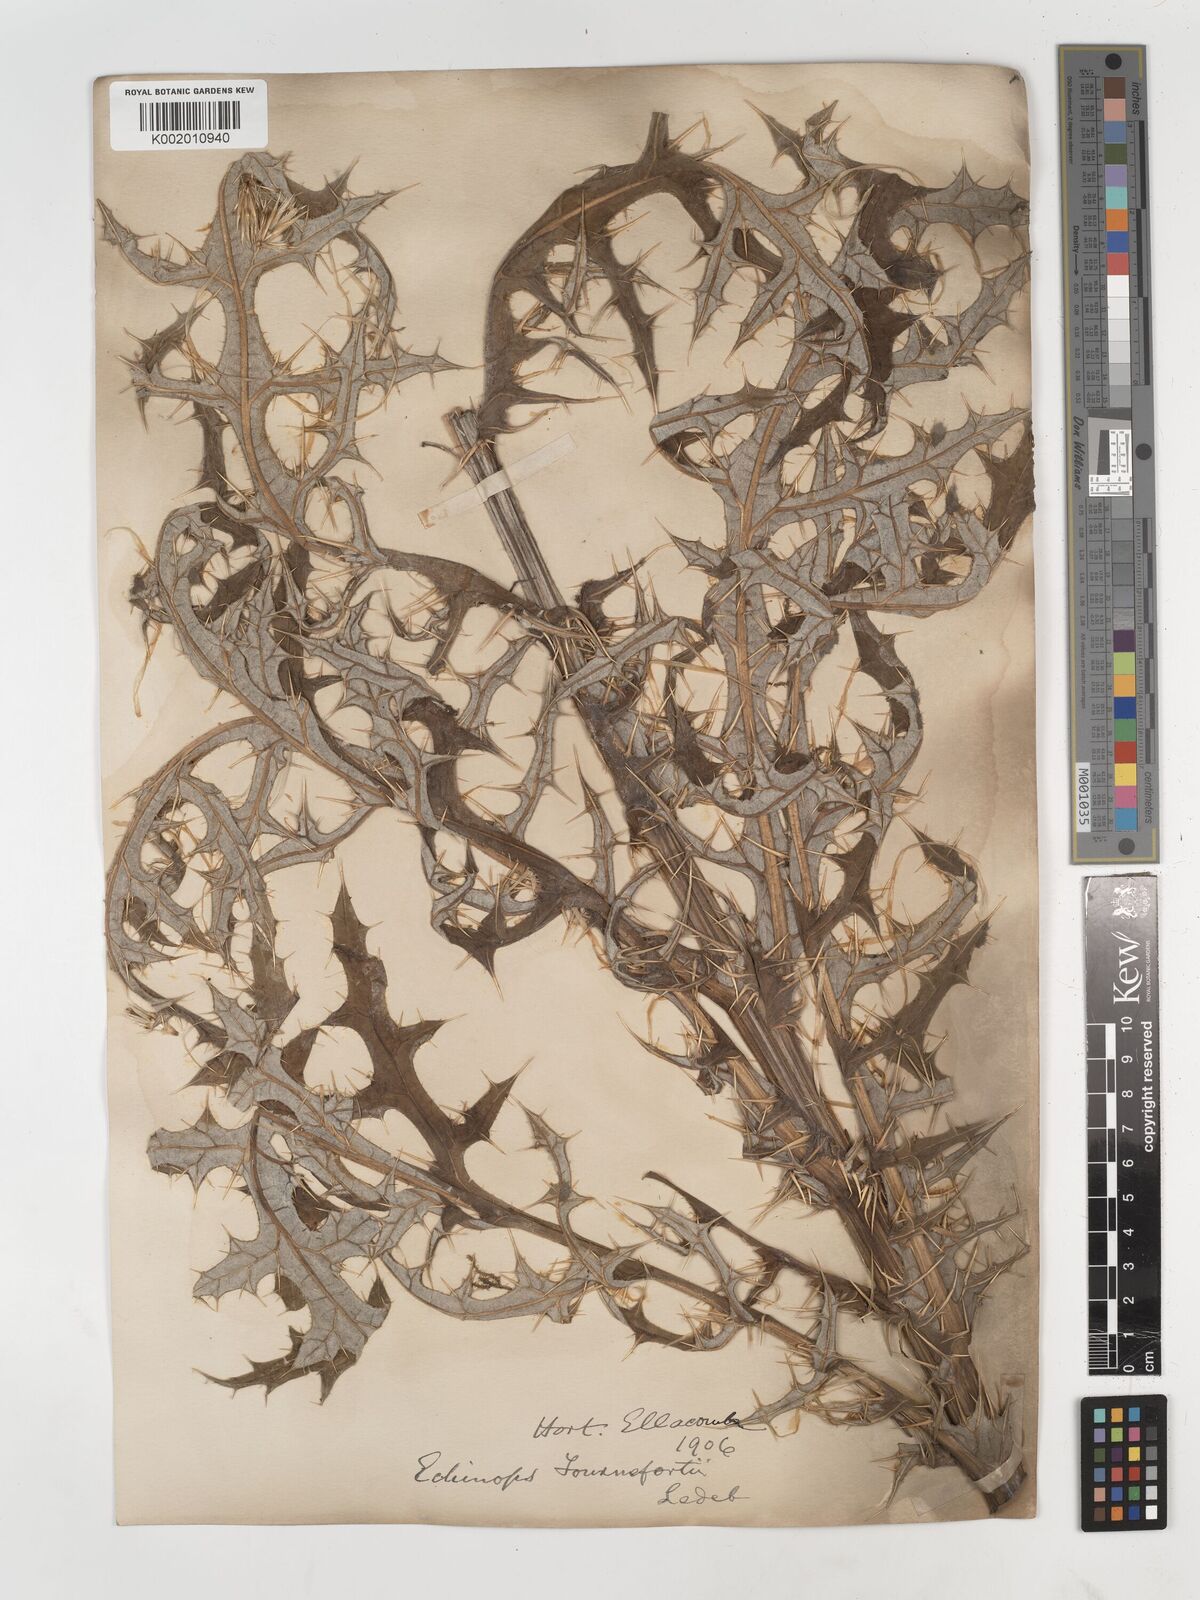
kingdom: Plantae
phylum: Tracheophyta
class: Magnoliopsida
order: Asterales
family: Asteraceae
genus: Echinops
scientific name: Echinops tournefortii
